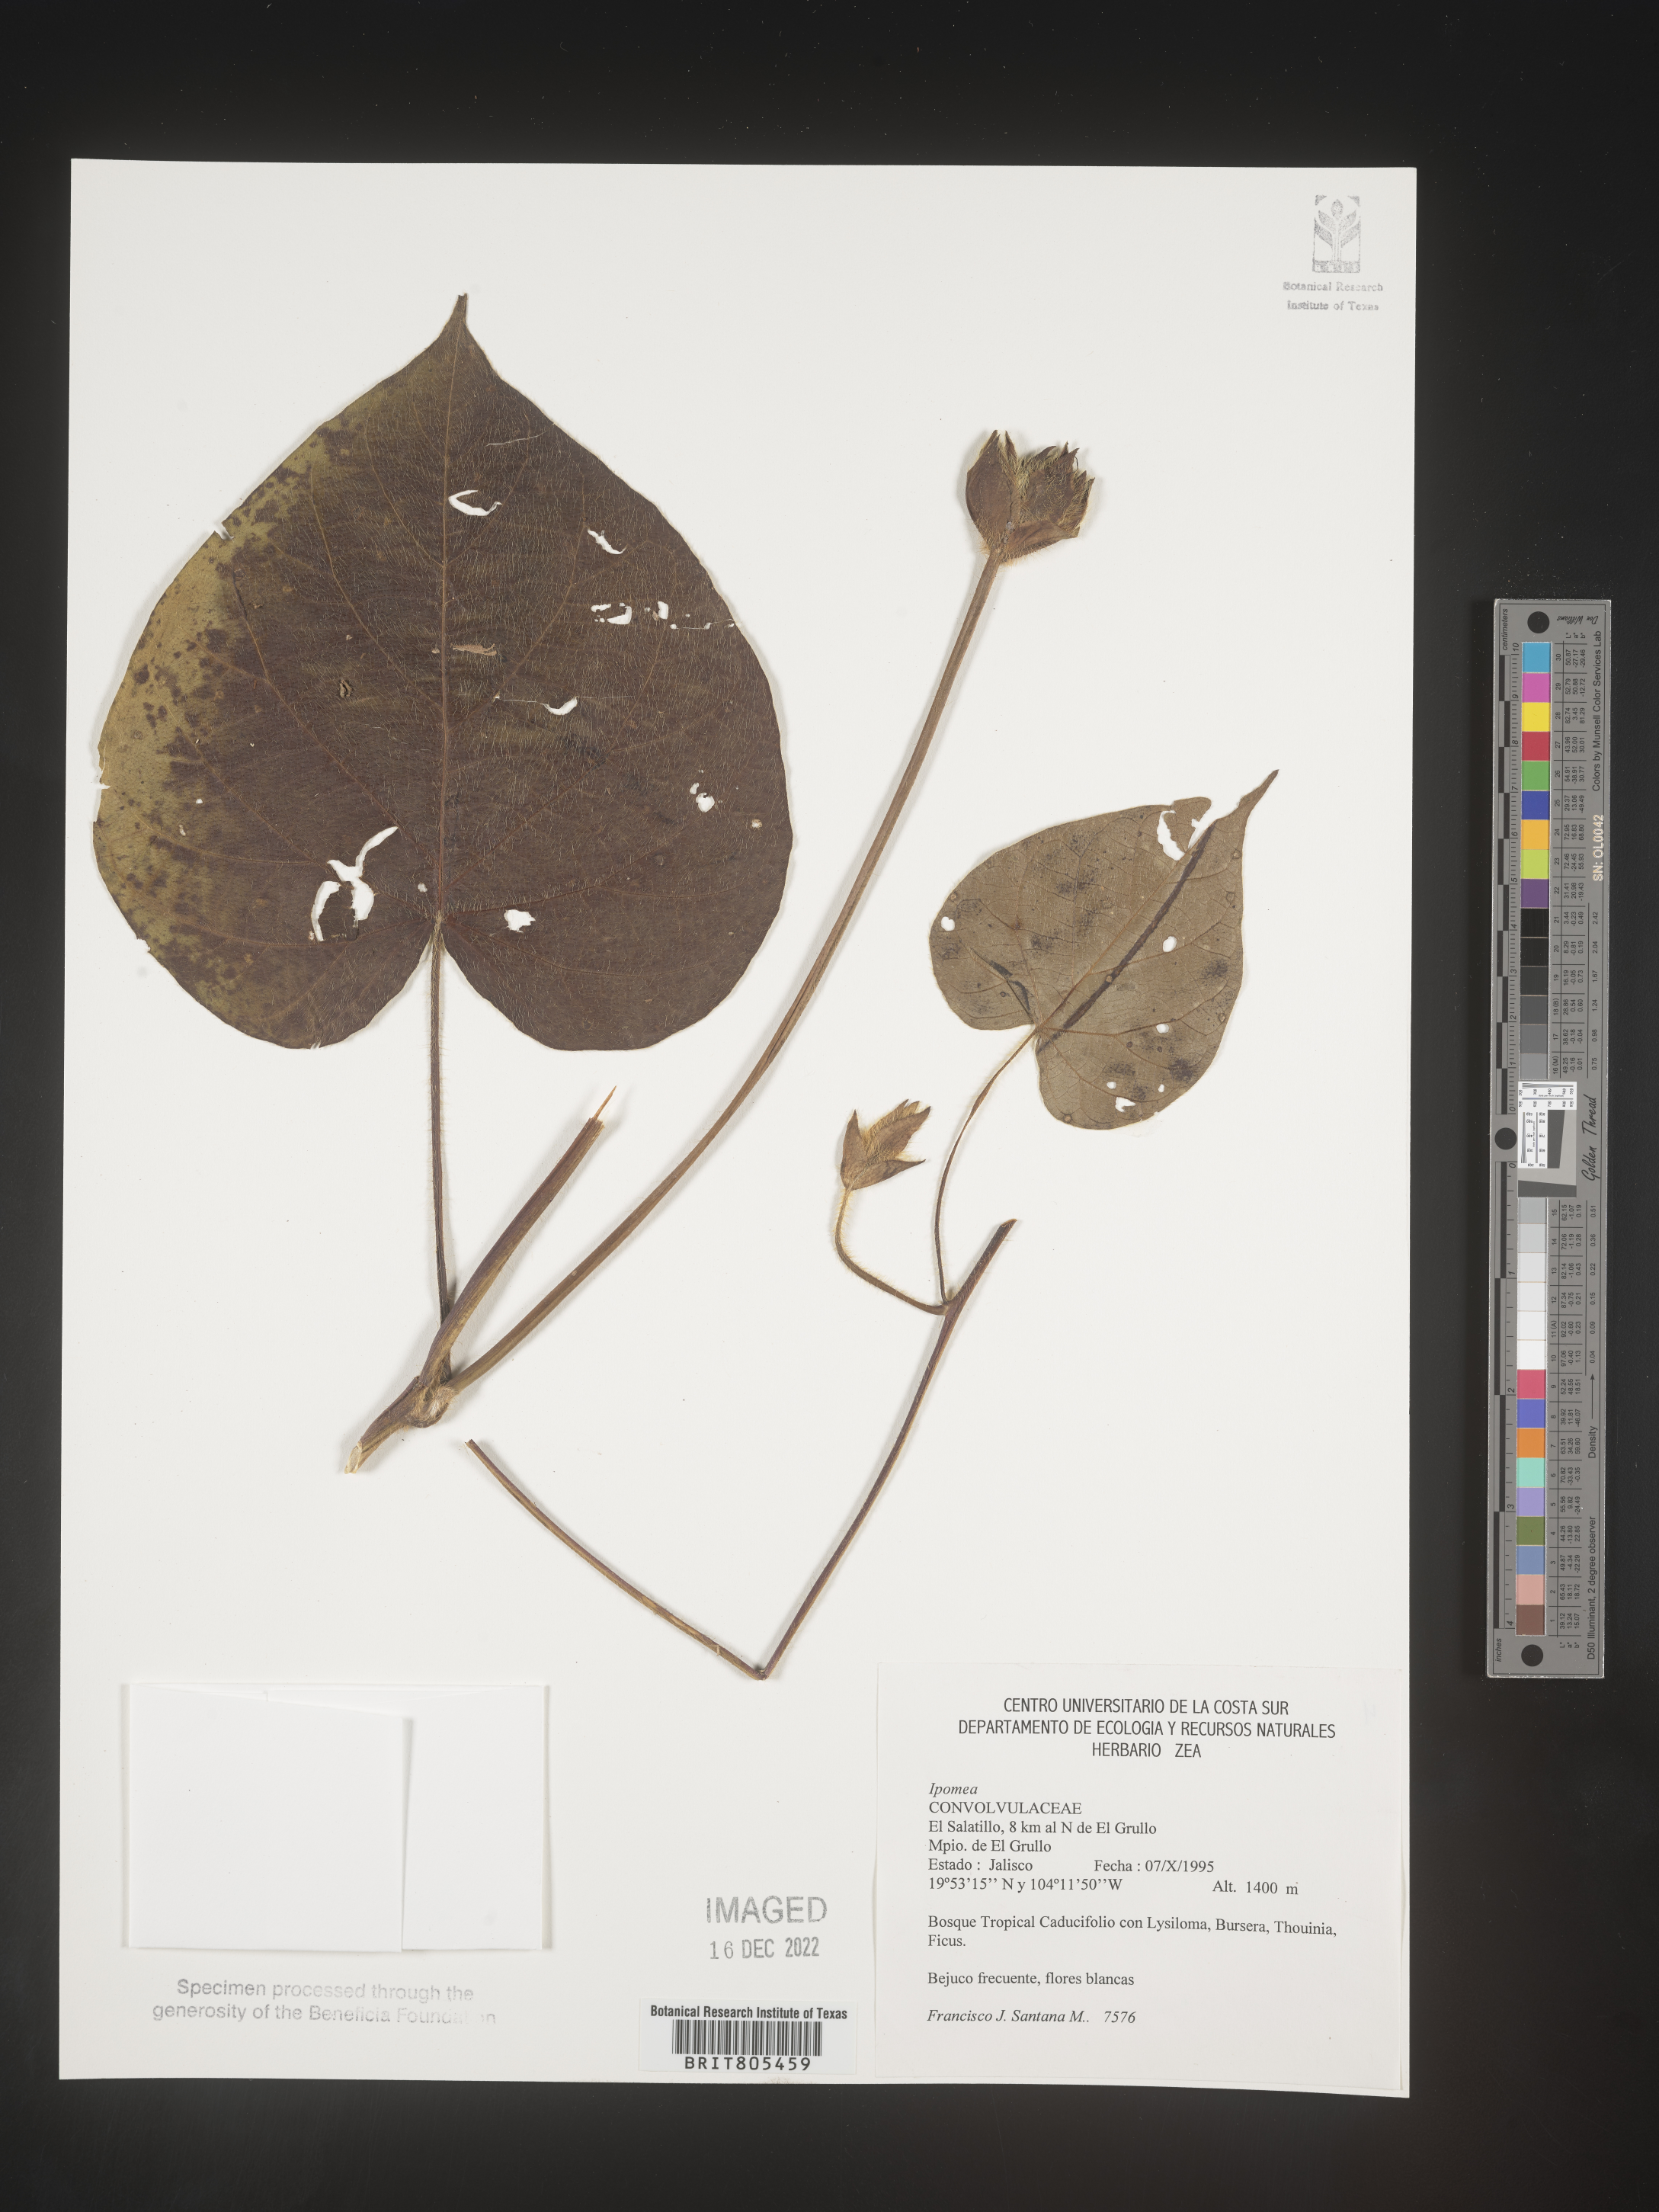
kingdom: Plantae
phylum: Tracheophyta
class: Magnoliopsida
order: Solanales
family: Convolvulaceae
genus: Ipomoea
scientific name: Ipomoea
